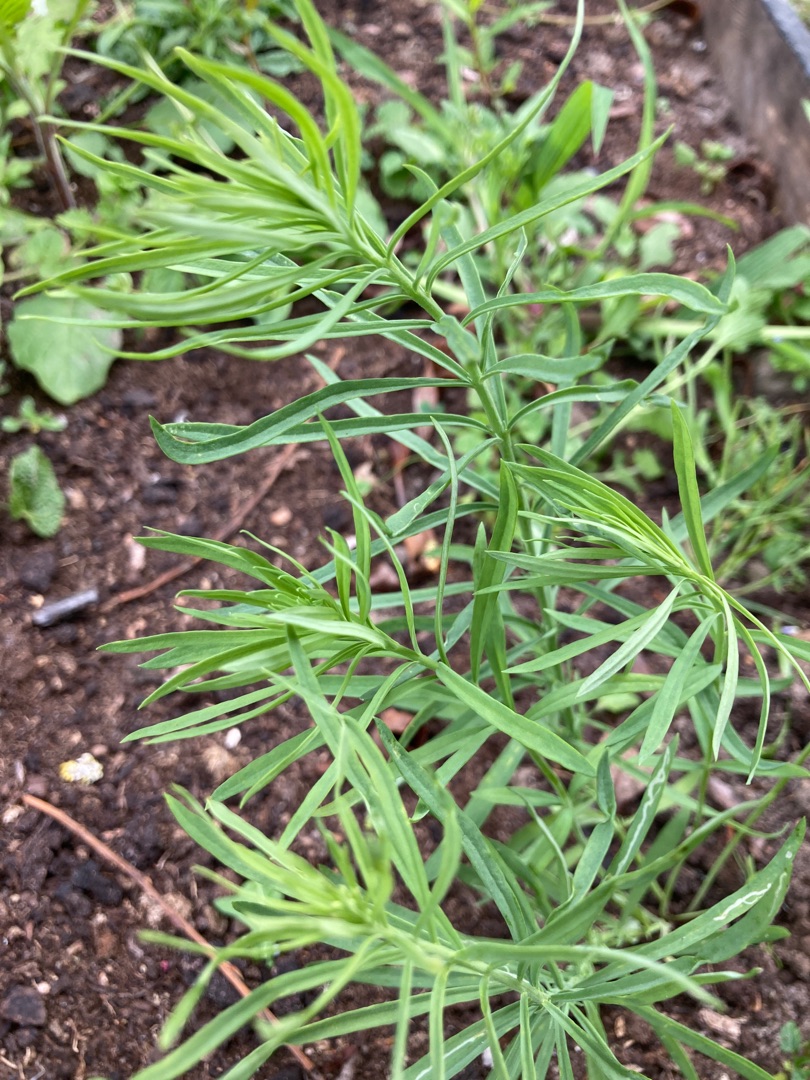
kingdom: Plantae
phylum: Tracheophyta
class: Magnoliopsida
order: Lamiales
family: Plantaginaceae
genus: Linaria
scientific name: Linaria vulgaris
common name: Almindelig torskemund
